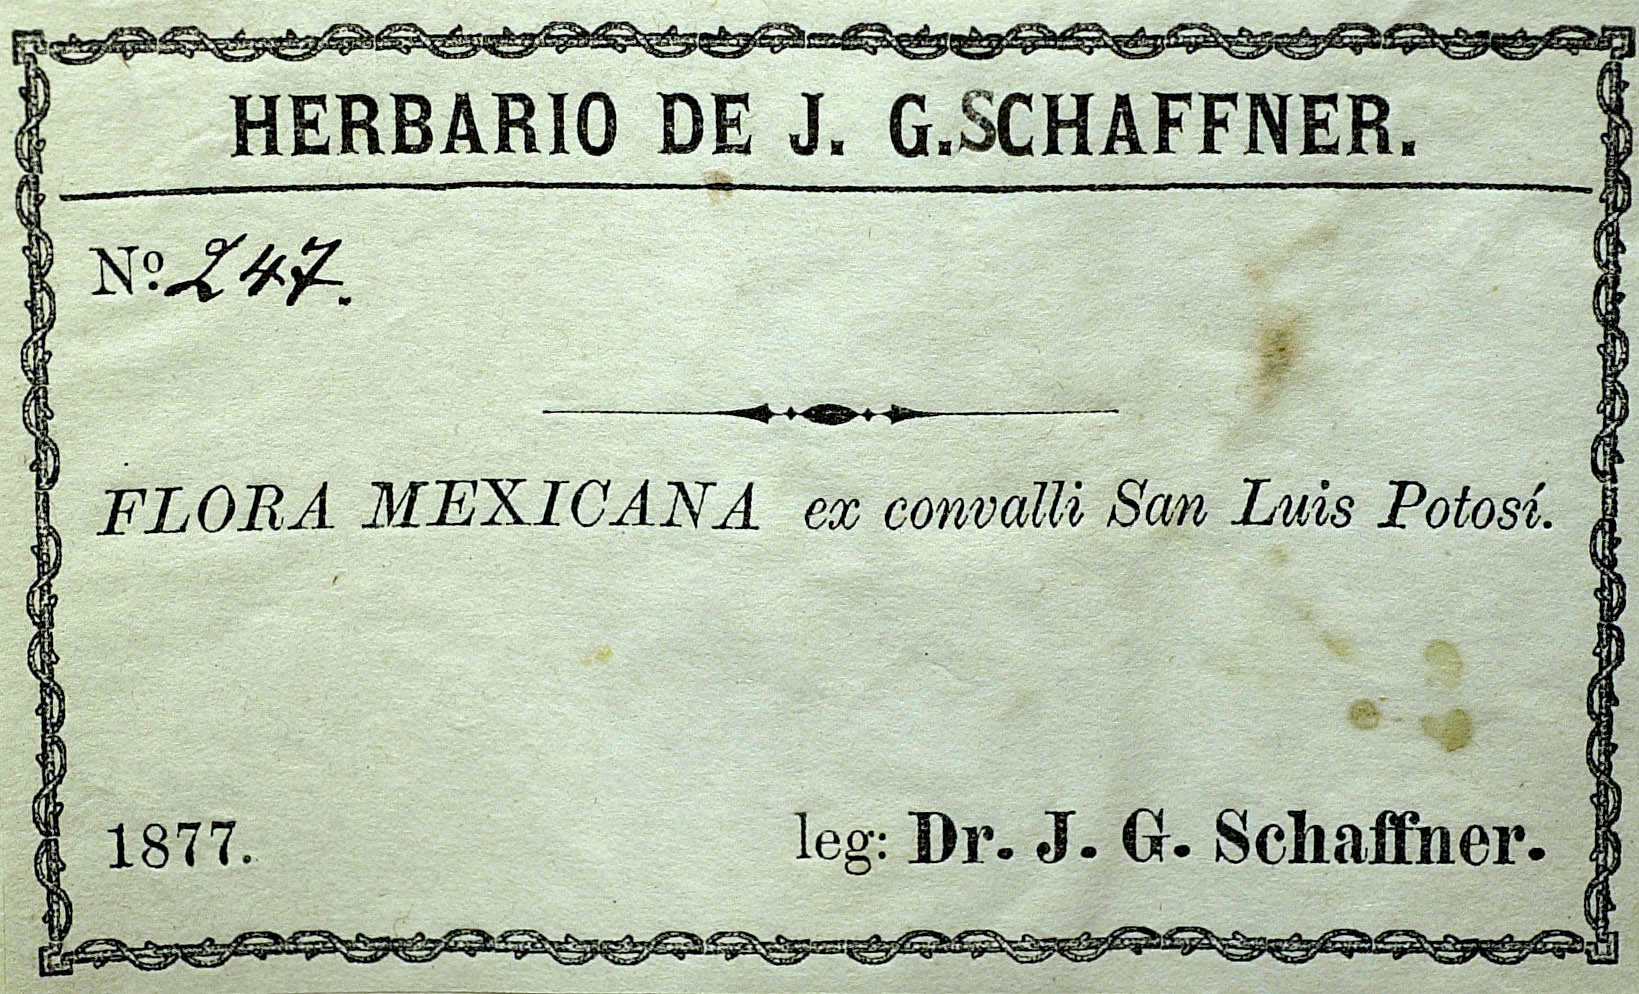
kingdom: Plantae
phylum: Tracheophyta
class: Magnoliopsida
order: Asterales
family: Asteraceae
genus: Stevia
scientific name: Stevia berlandieri
